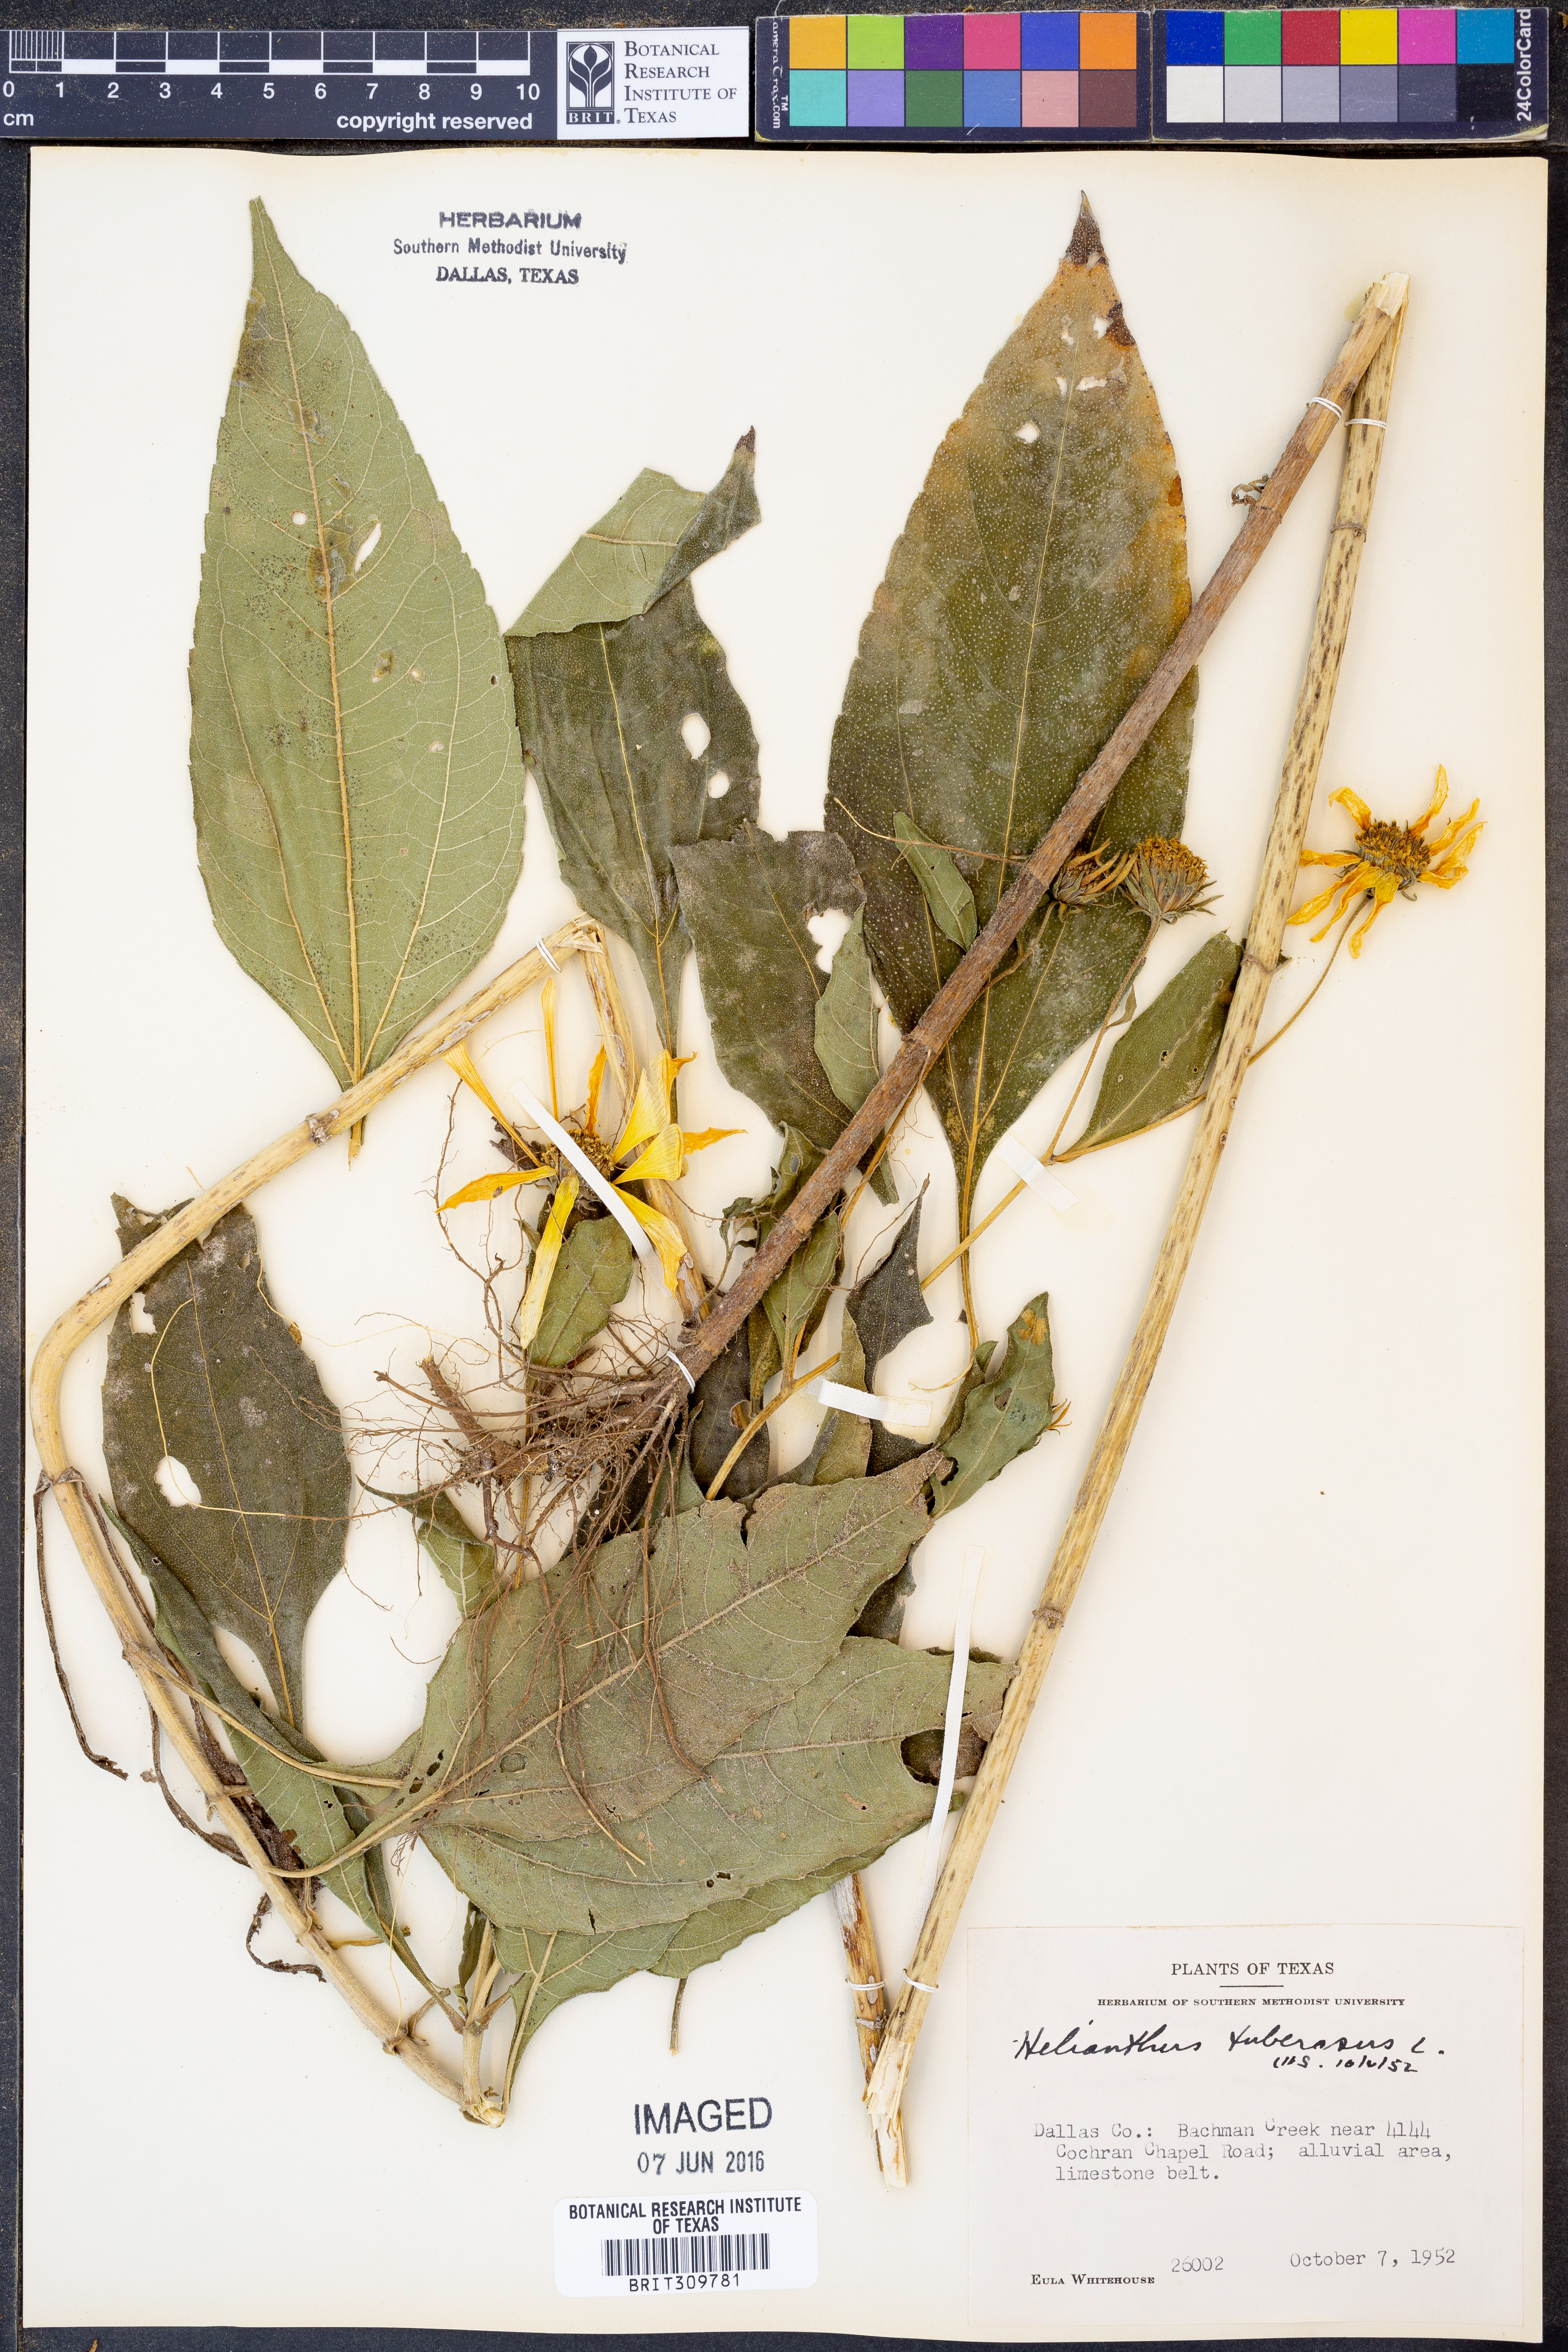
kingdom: Plantae
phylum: Tracheophyta
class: Magnoliopsida
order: Asterales
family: Asteraceae
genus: Helianthus
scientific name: Helianthus tuberosus
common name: Jerusalem artichoke
